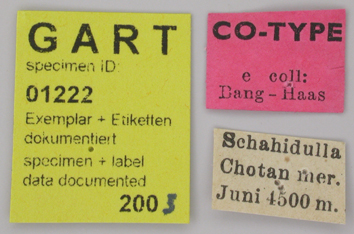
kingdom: Animalia
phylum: Arthropoda
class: Insecta
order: Lepidoptera
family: Papilionidae
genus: Parnassius
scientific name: Parnassius staudingeri
